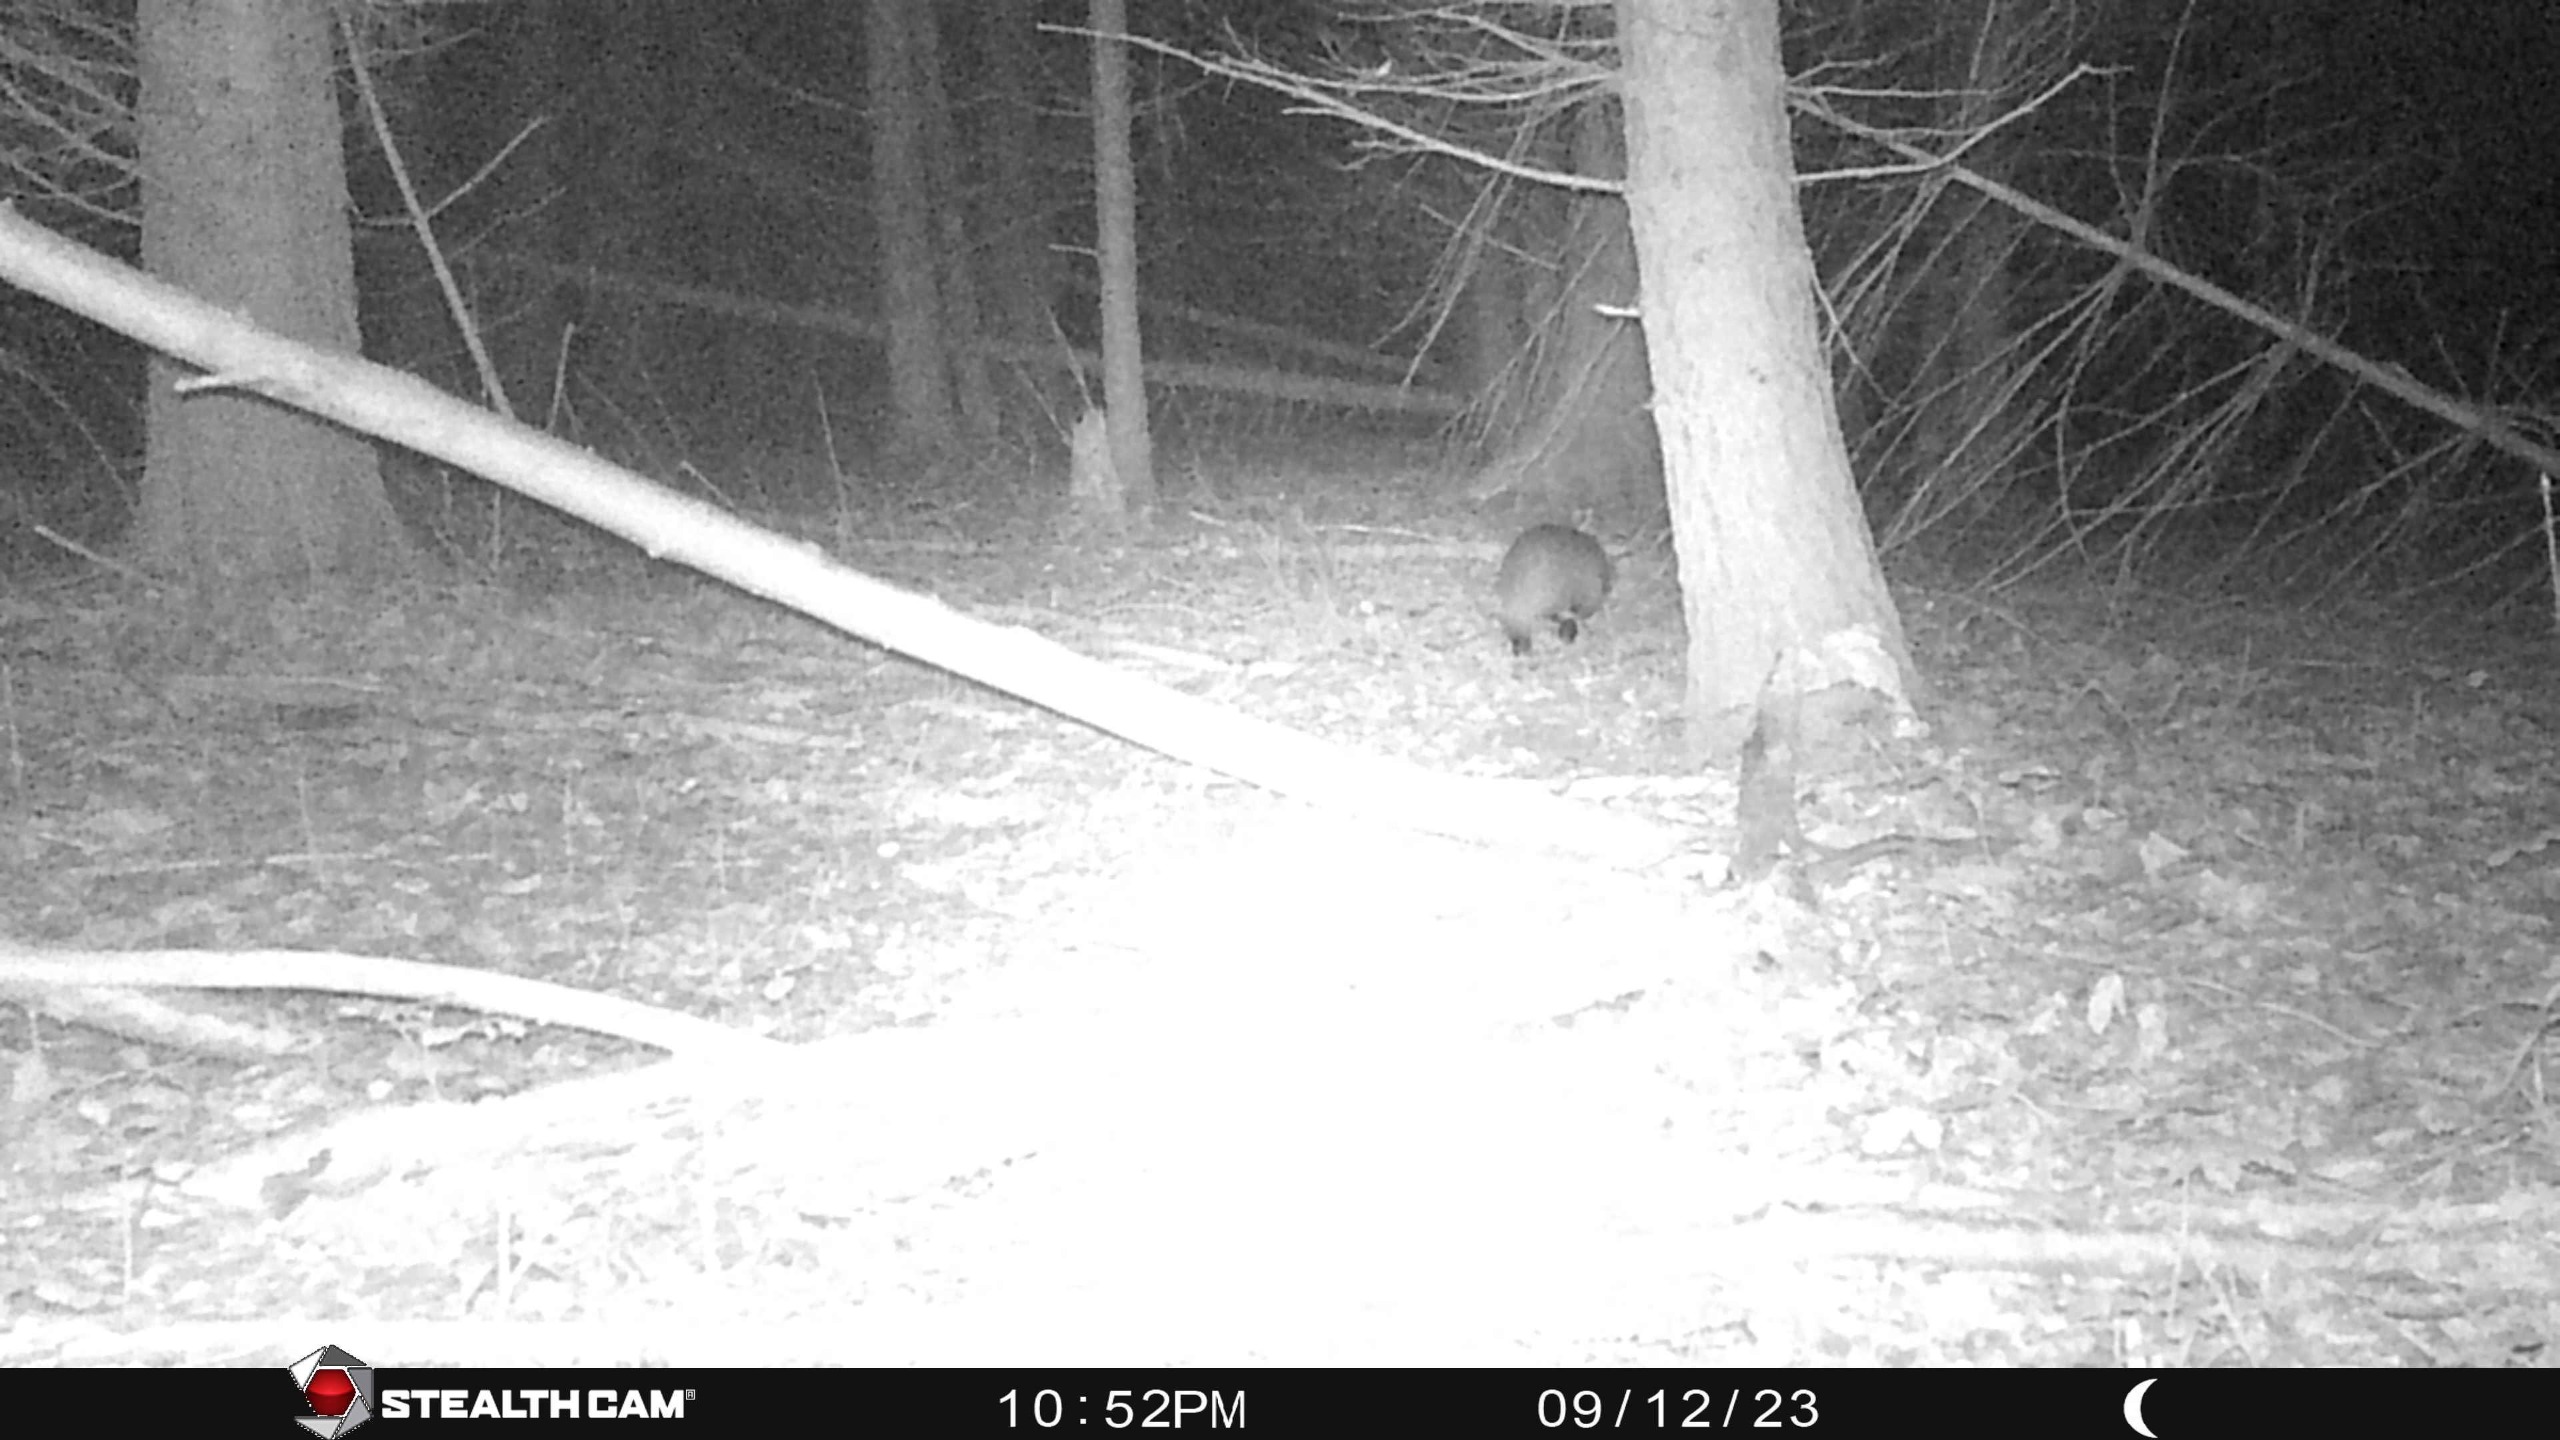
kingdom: Animalia
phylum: Chordata
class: Mammalia
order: Carnivora
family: Mustelidae
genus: Meles
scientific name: Meles meles
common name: Grævling
